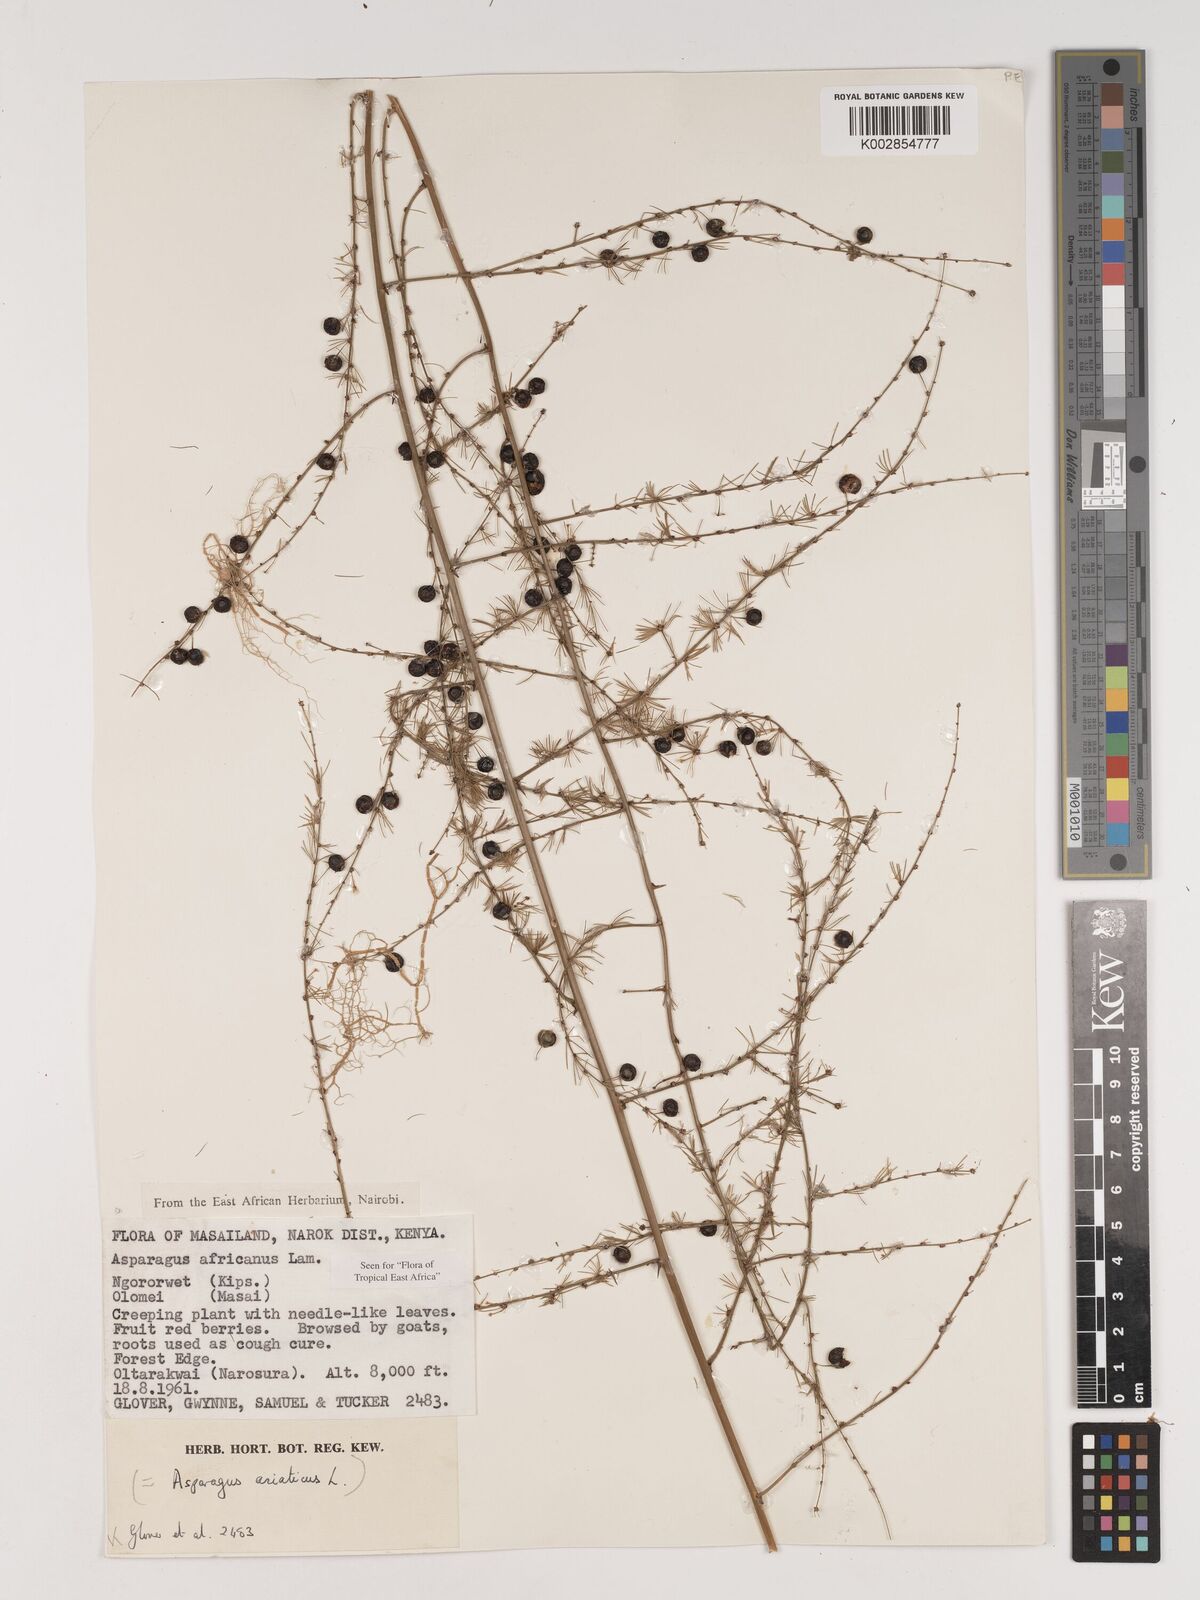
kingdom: Plantae
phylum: Tracheophyta
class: Liliopsida
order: Asparagales
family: Asparagaceae
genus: Asparagus
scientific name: Asparagus africanus
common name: Asparagus-fern
